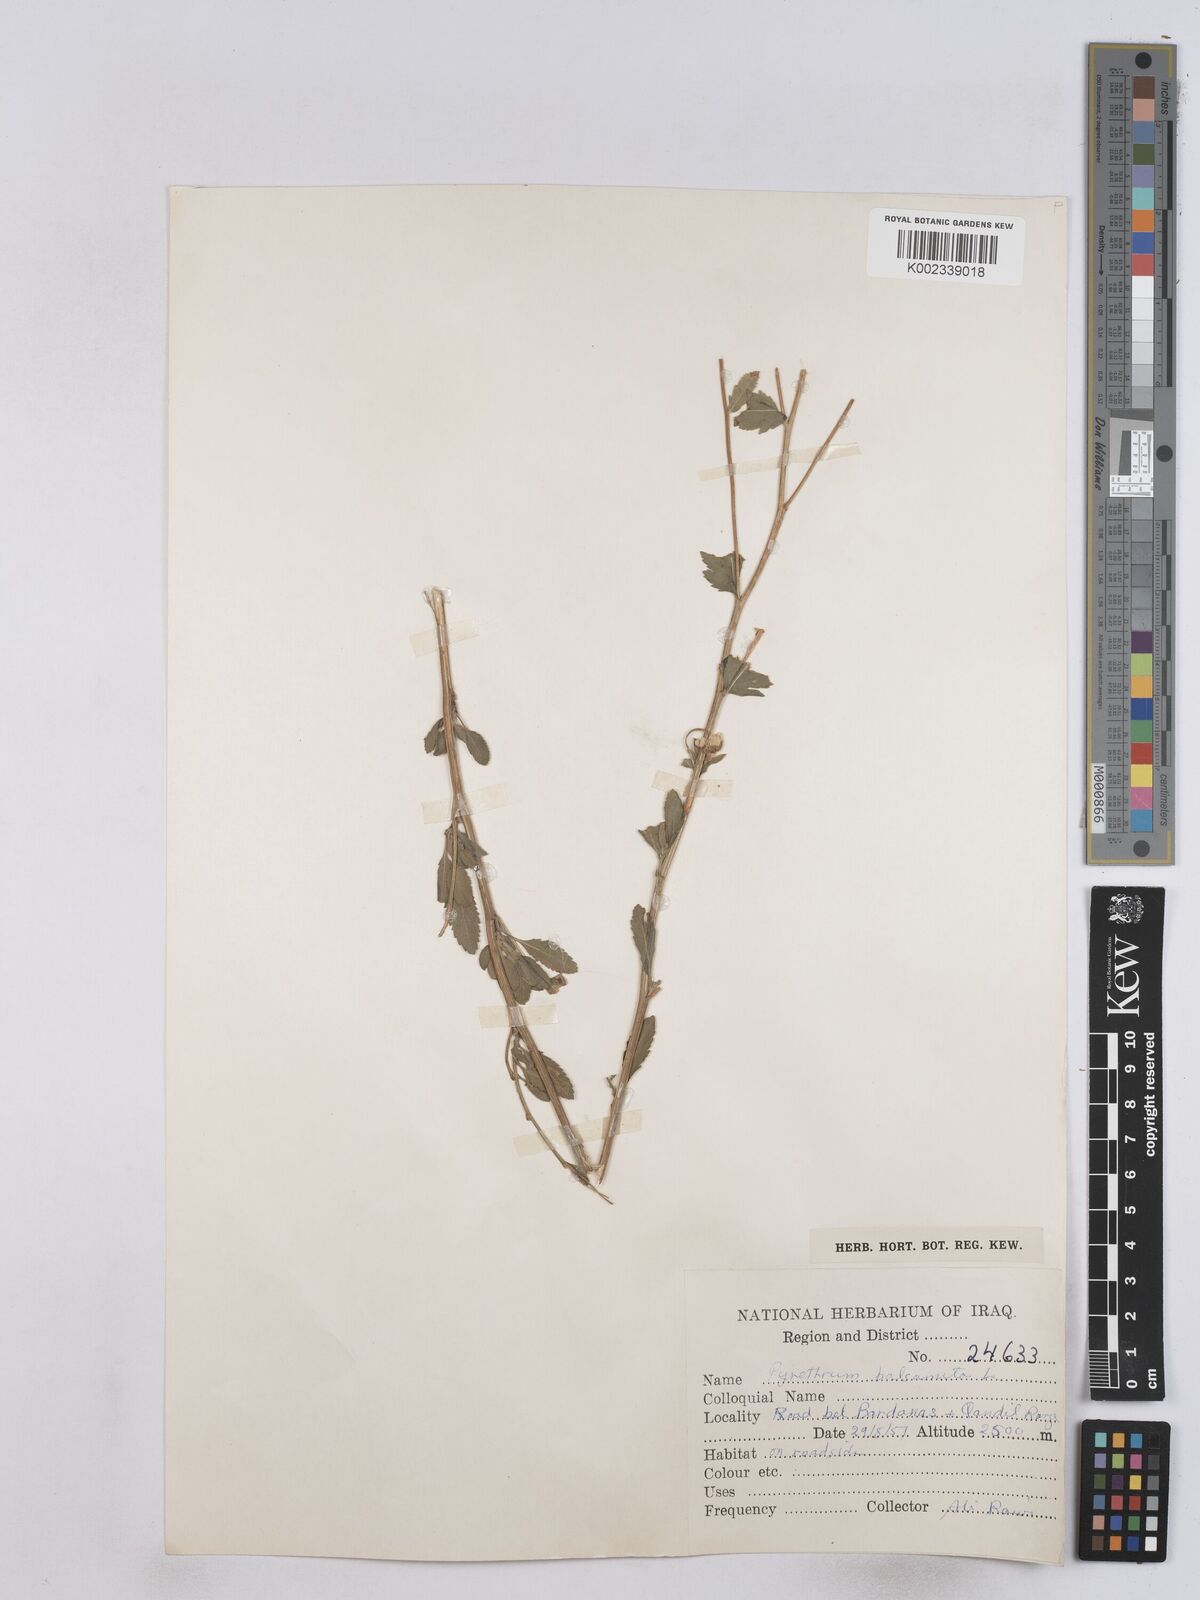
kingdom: Plantae
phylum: Tracheophyta
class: Magnoliopsida
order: Asterales
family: Asteraceae
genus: Tanacetum
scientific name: Tanacetum balsamitoides
